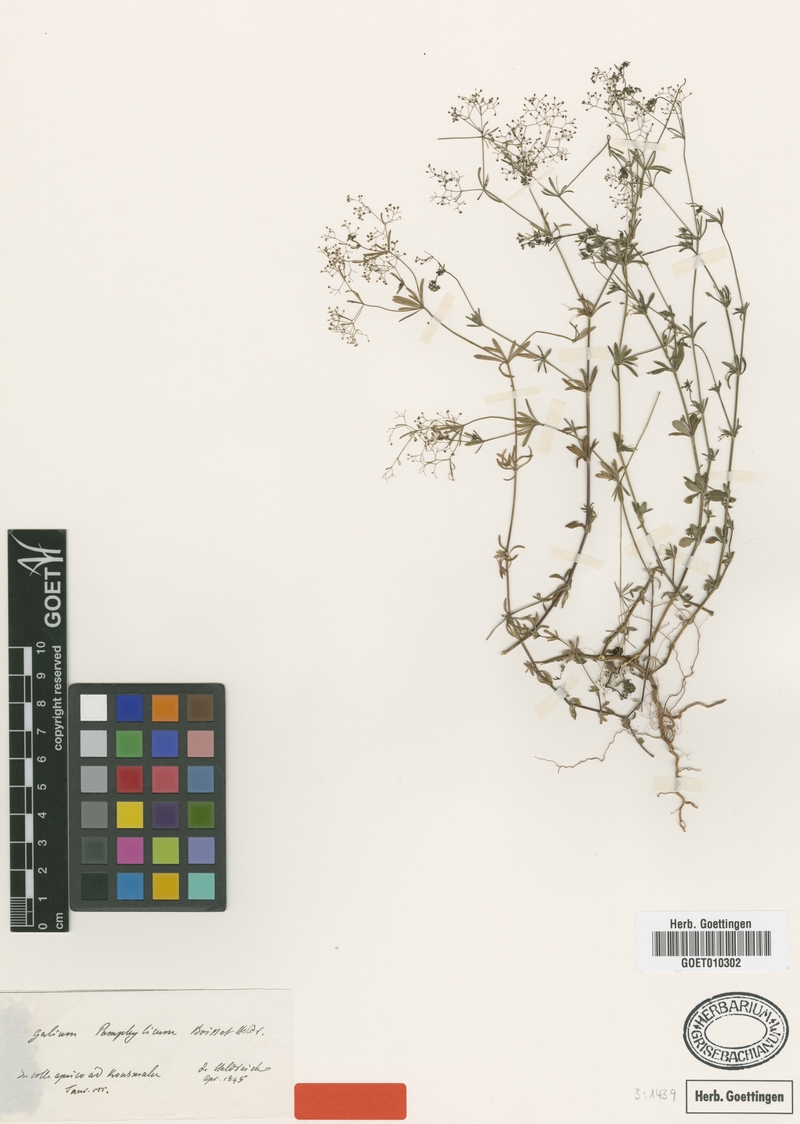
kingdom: Plantae
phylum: Tracheophyta
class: Magnoliopsida
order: Gentianales
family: Rubiaceae
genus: Galium
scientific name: Galium pamphylicum
